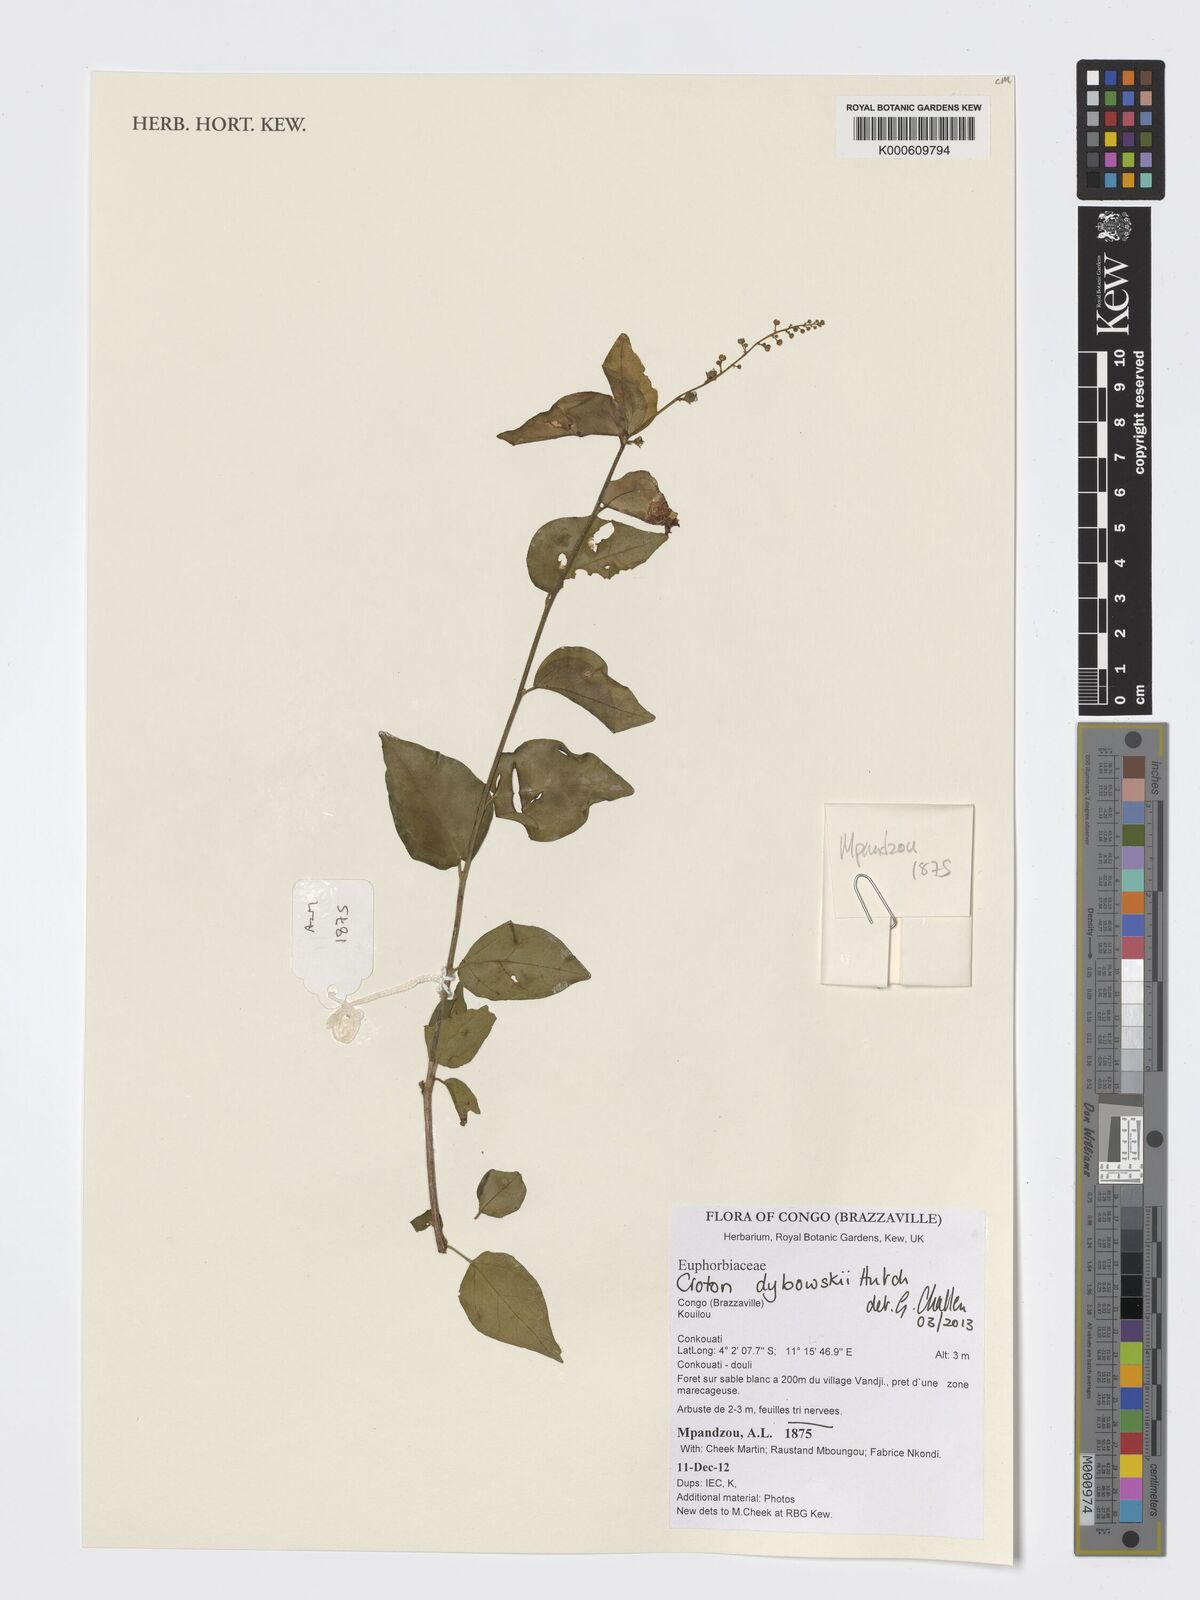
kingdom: Plantae
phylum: Tracheophyta
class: Magnoliopsida
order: Malpighiales
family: Euphorbiaceae
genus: Croton
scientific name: Croton dybowskii
